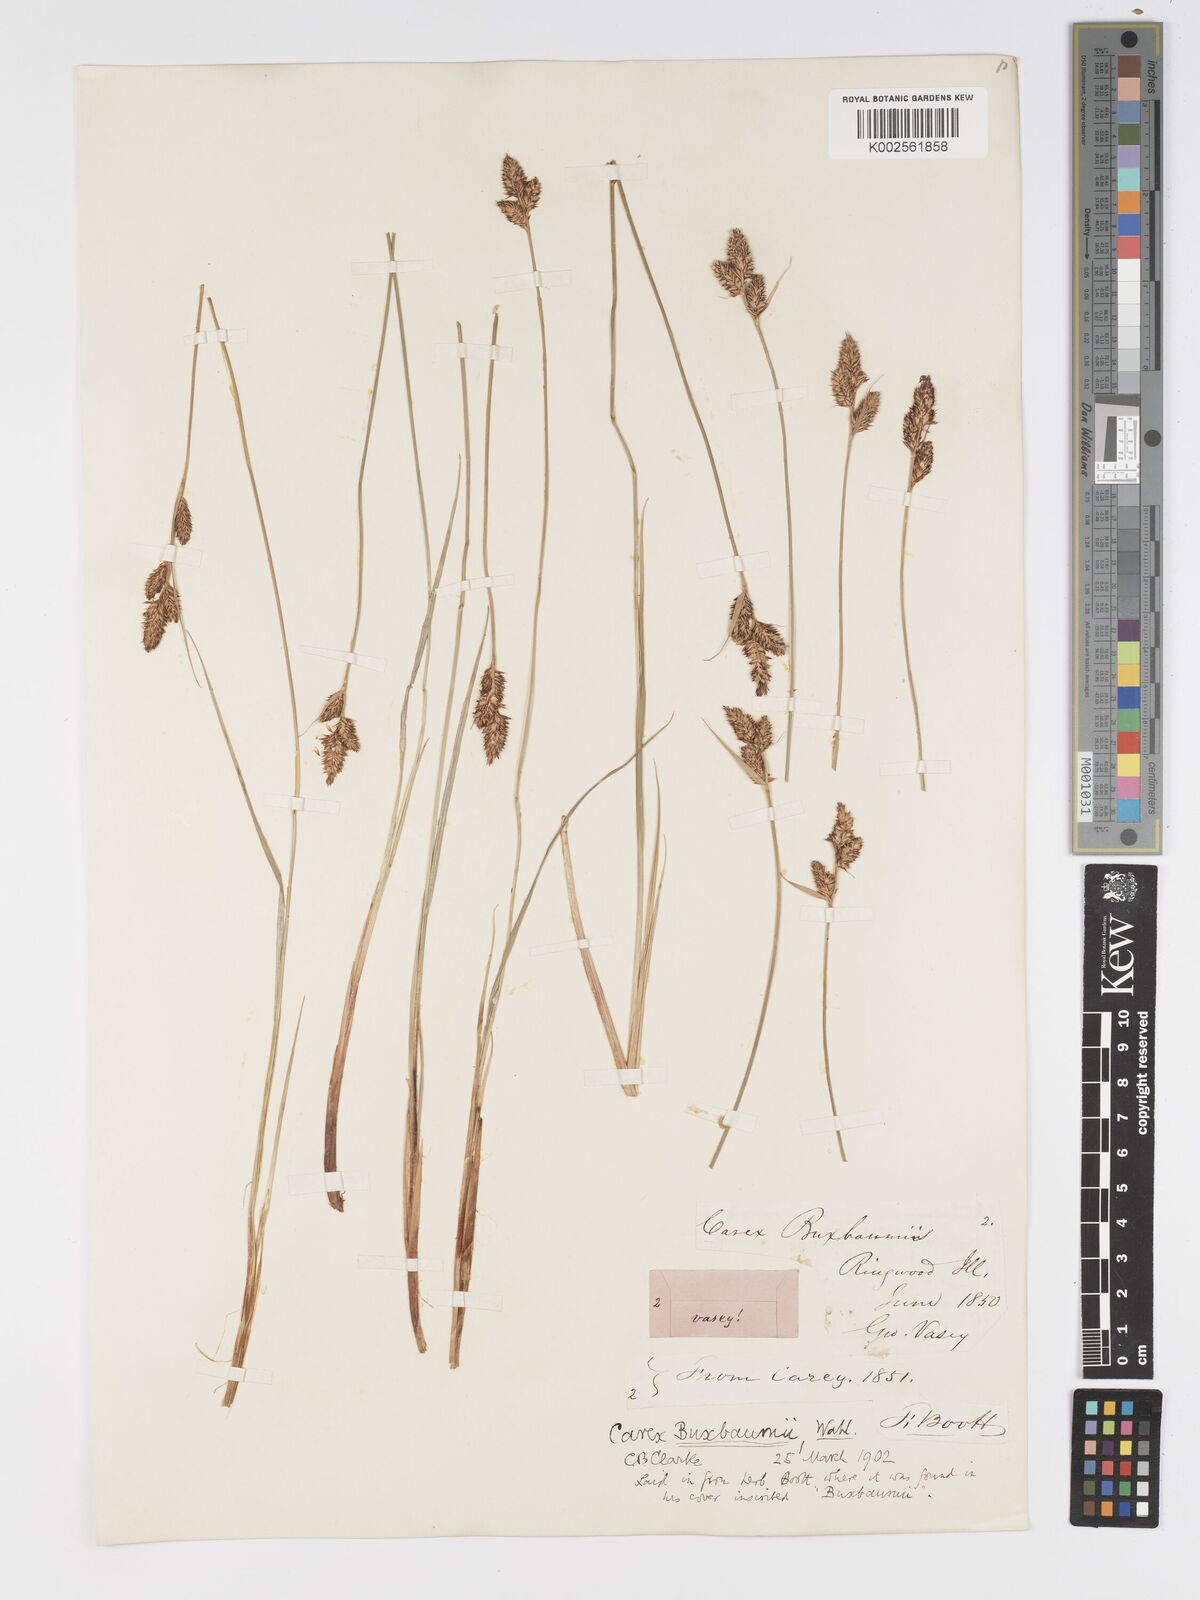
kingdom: Plantae
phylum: Tracheophyta
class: Liliopsida
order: Poales
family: Cyperaceae
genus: Carex
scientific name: Carex buxbaumii
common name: Club sedge
